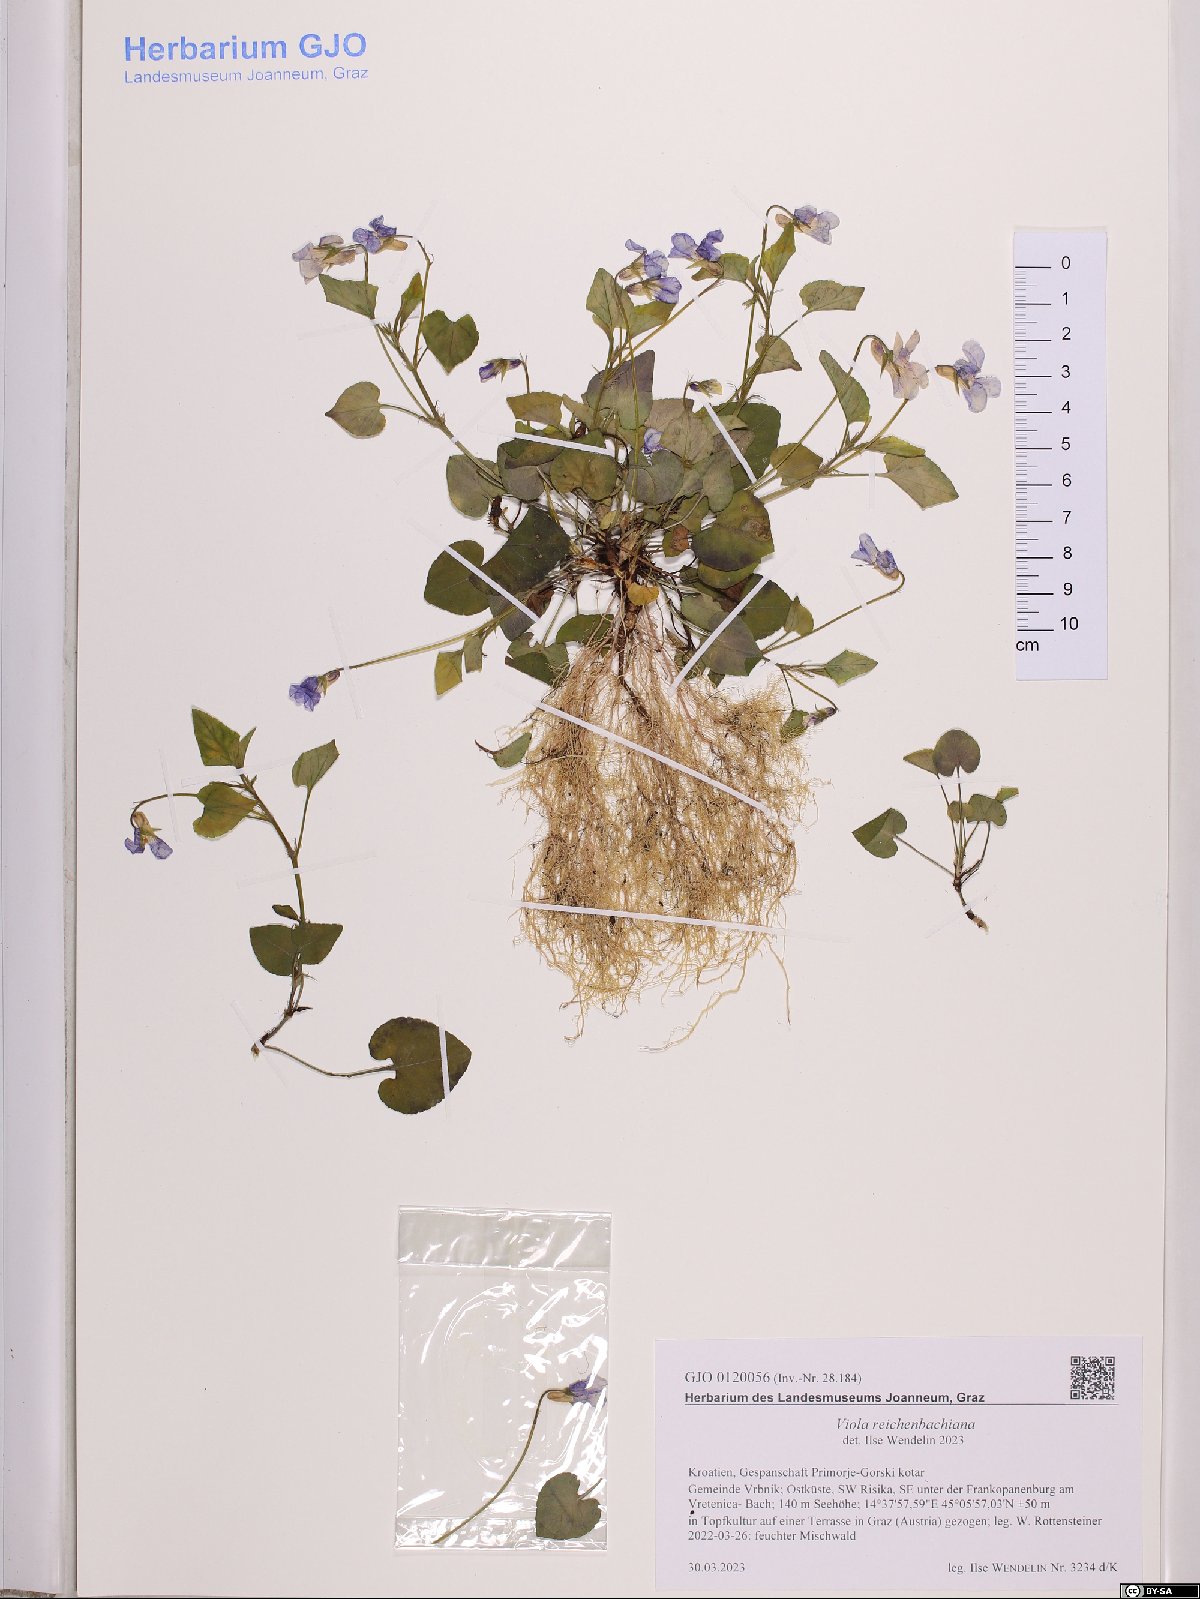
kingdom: Plantae
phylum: Tracheophyta
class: Magnoliopsida
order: Malpighiales
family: Violaceae
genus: Viola
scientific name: Viola reichenbachiana
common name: Early dog-violet
